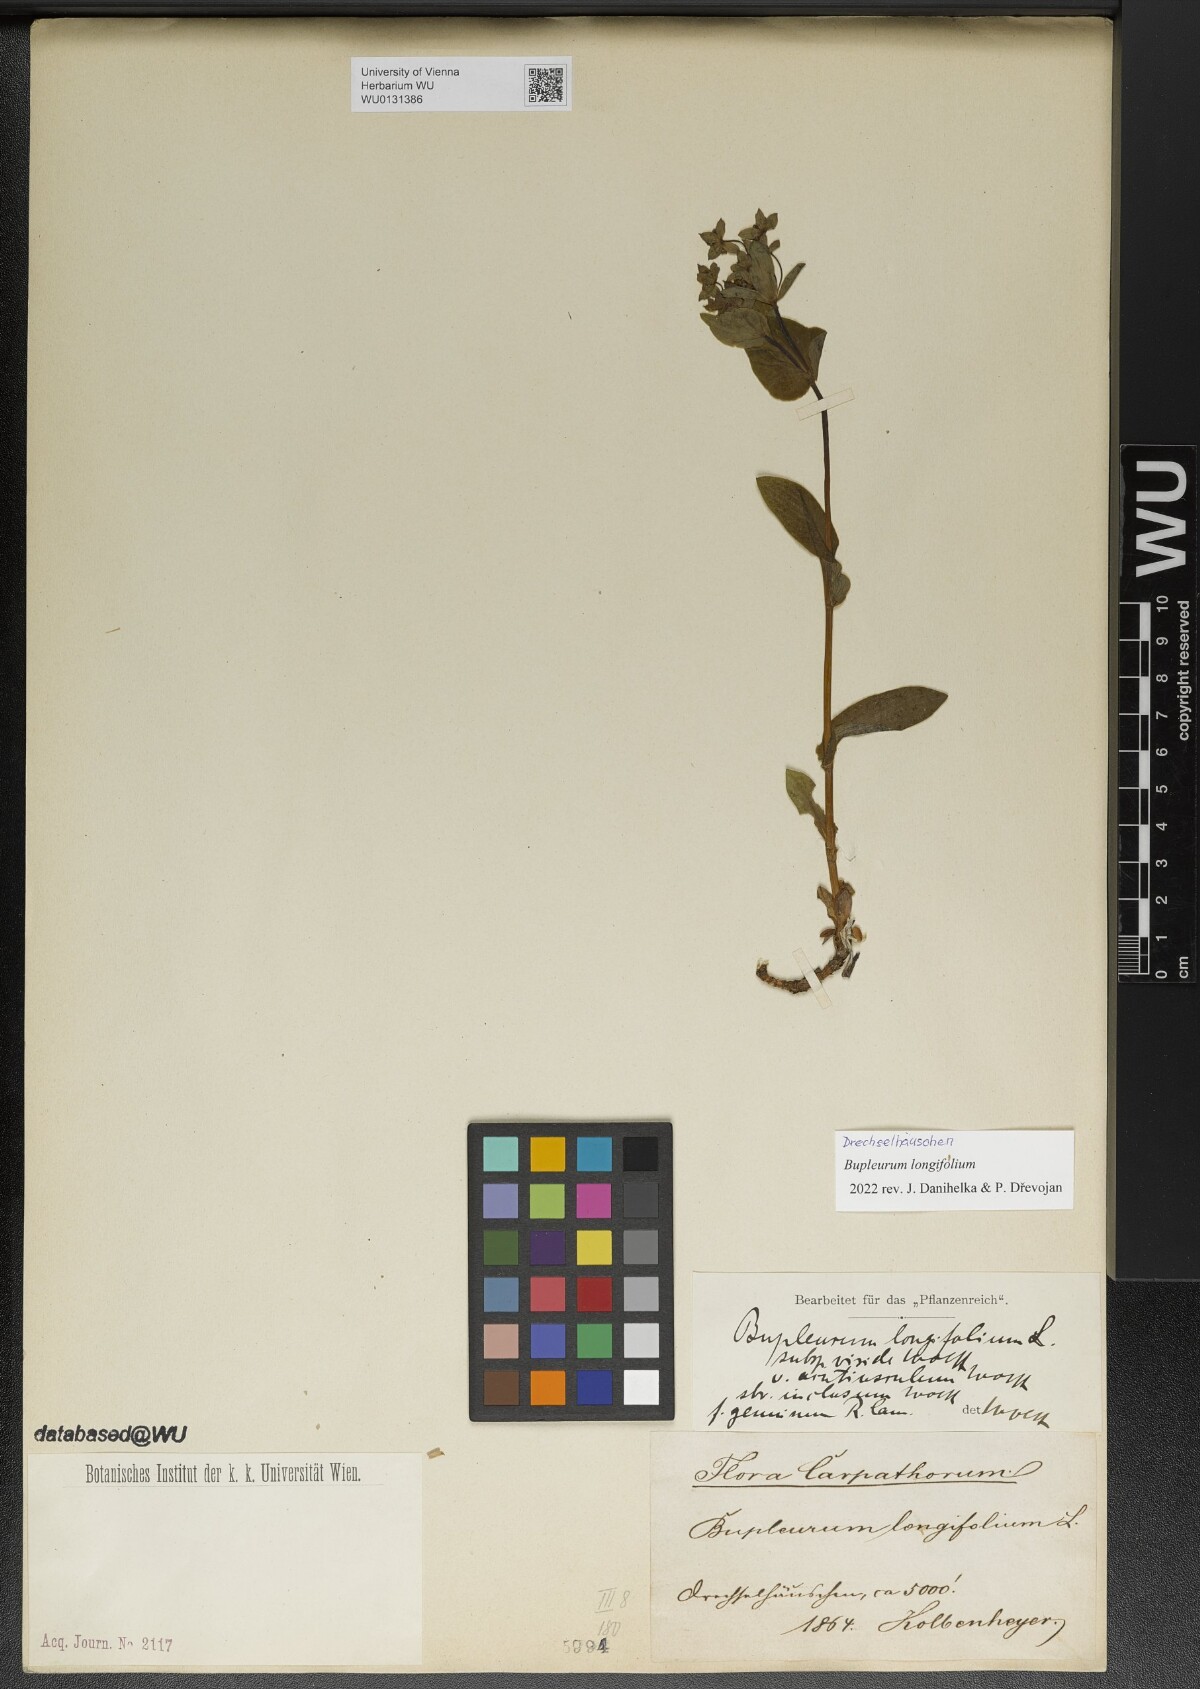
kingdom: Plantae
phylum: Tracheophyta
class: Magnoliopsida
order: Apiales
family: Apiaceae
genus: Bupleurum
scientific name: Bupleurum longifolium
